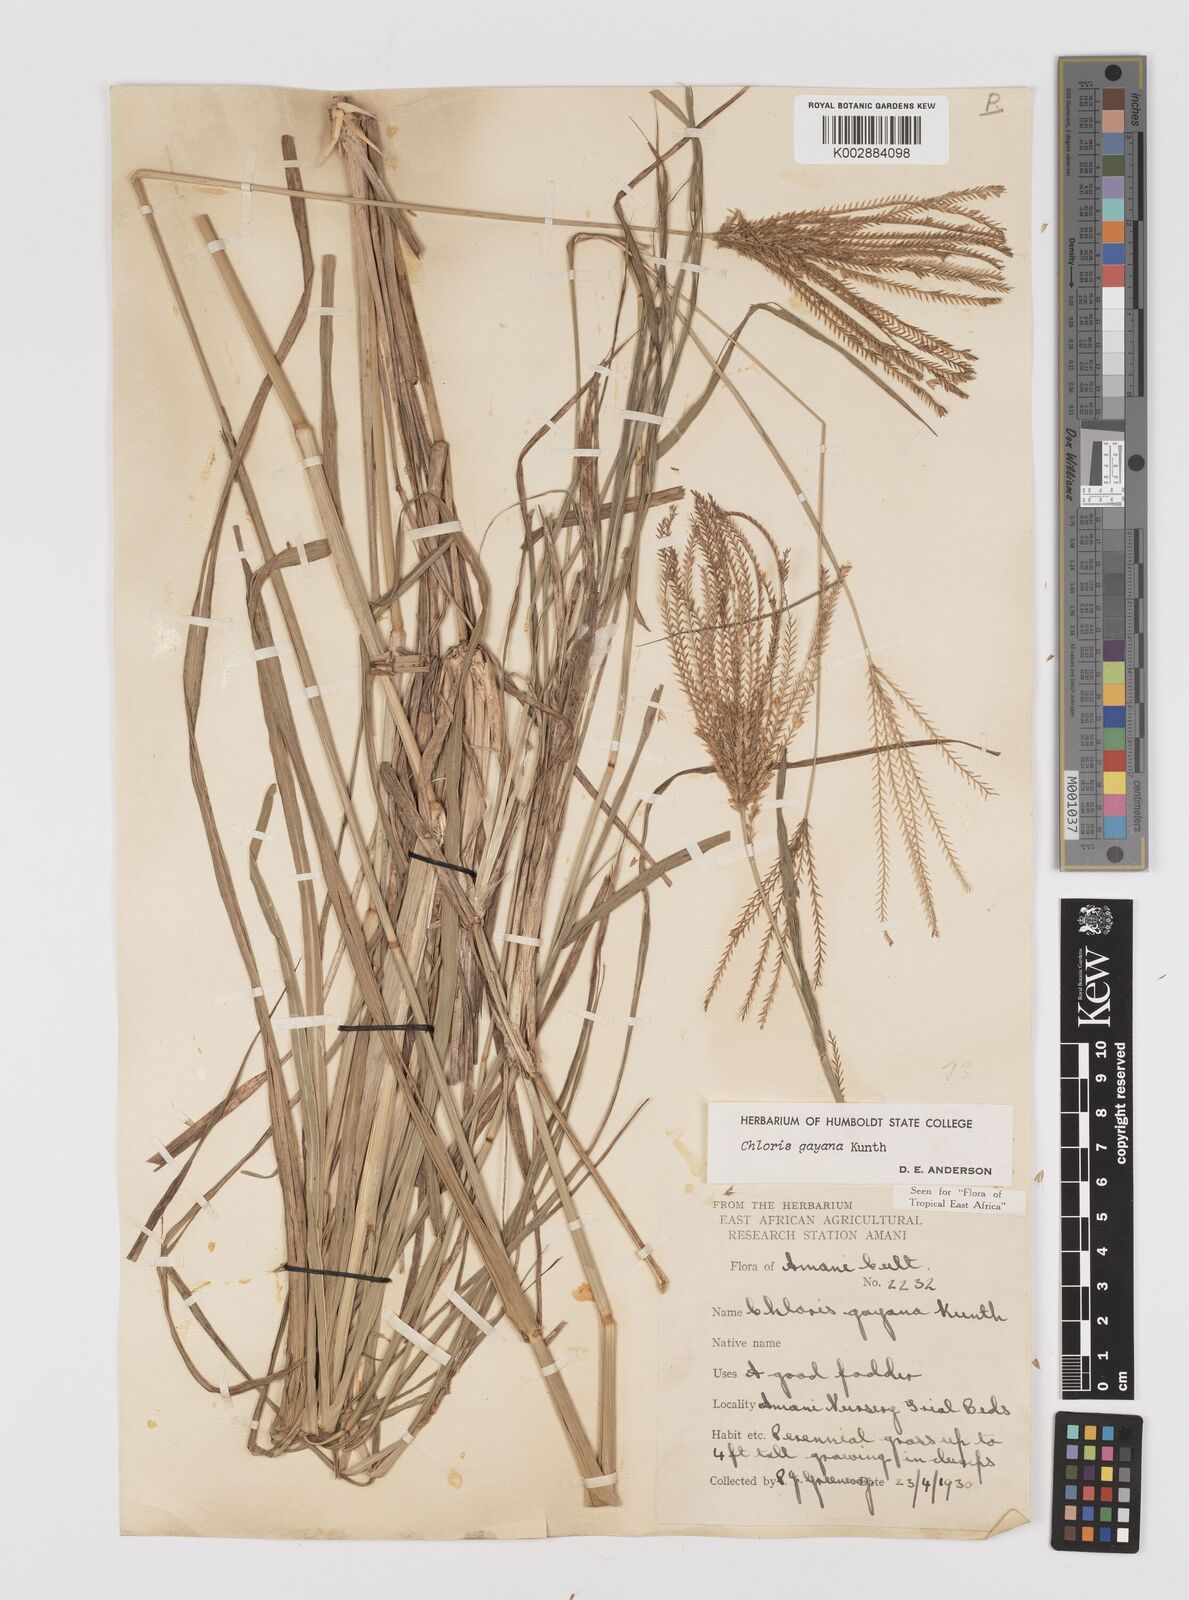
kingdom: Plantae
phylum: Tracheophyta
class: Liliopsida
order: Poales
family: Poaceae
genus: Chloris
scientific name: Chloris gayana
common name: Rhodes grass
